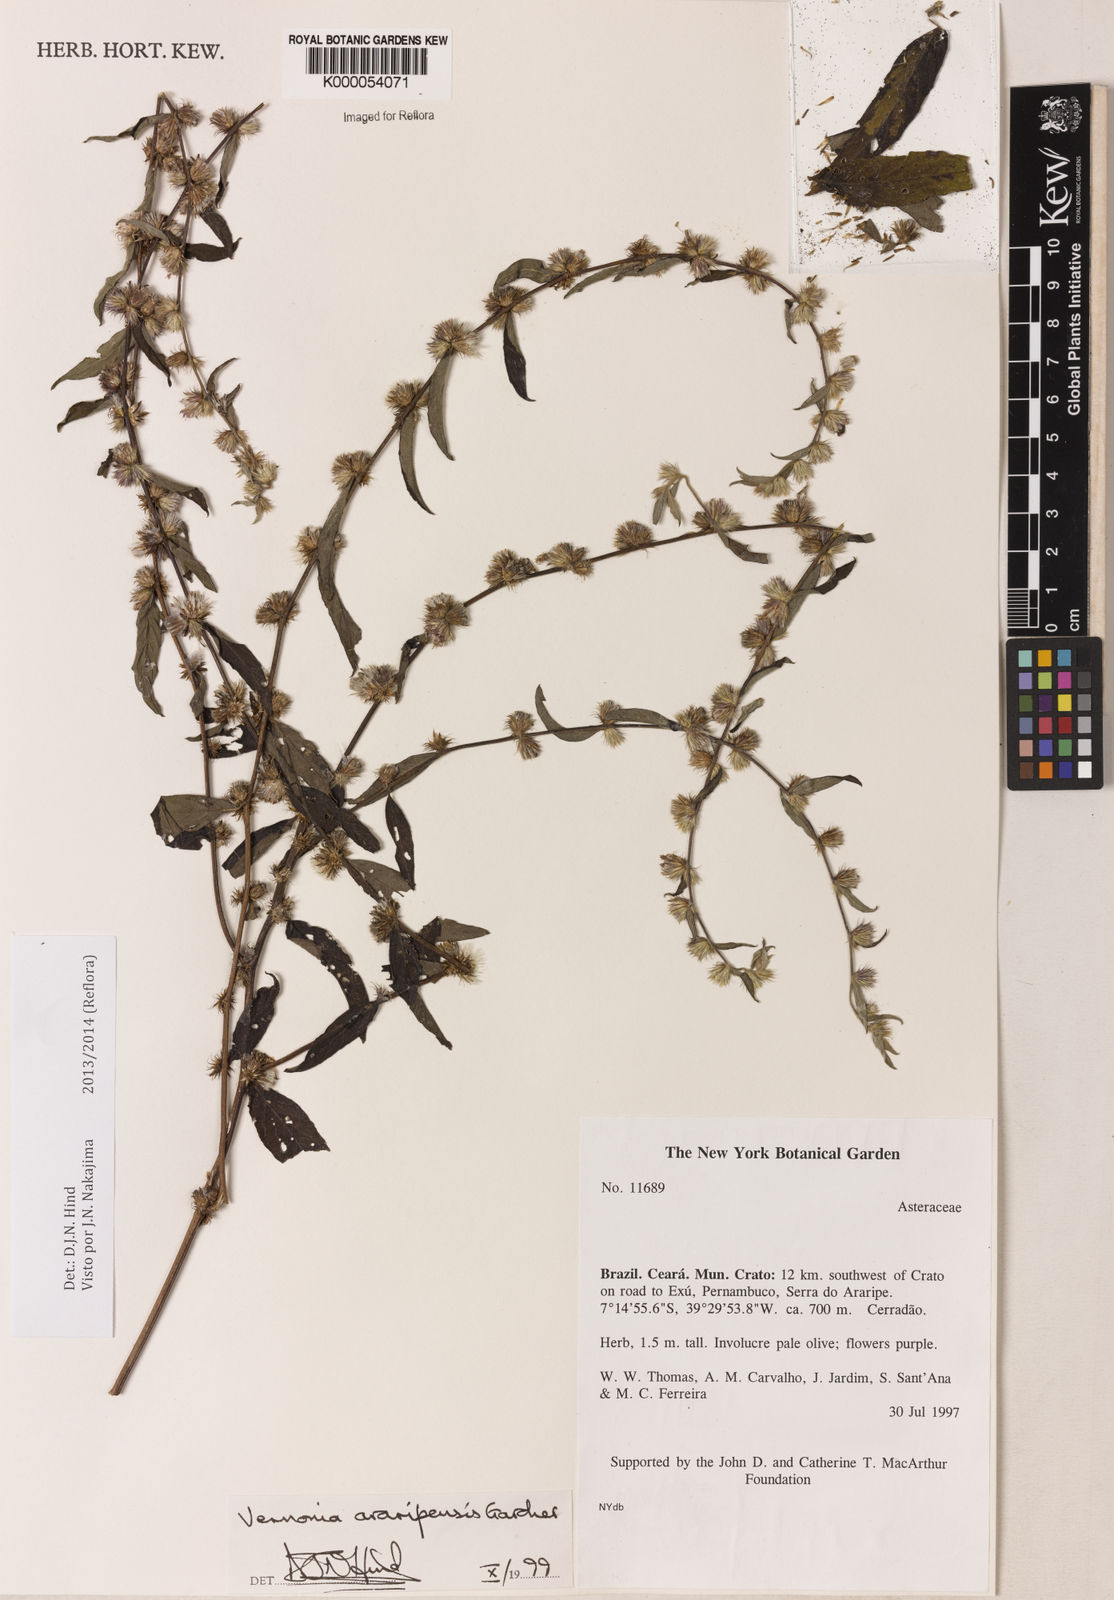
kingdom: Plantae
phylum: Tracheophyta
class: Magnoliopsida
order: Asterales
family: Asteraceae
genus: Lepidaploa
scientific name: Lepidaploa araripensis
